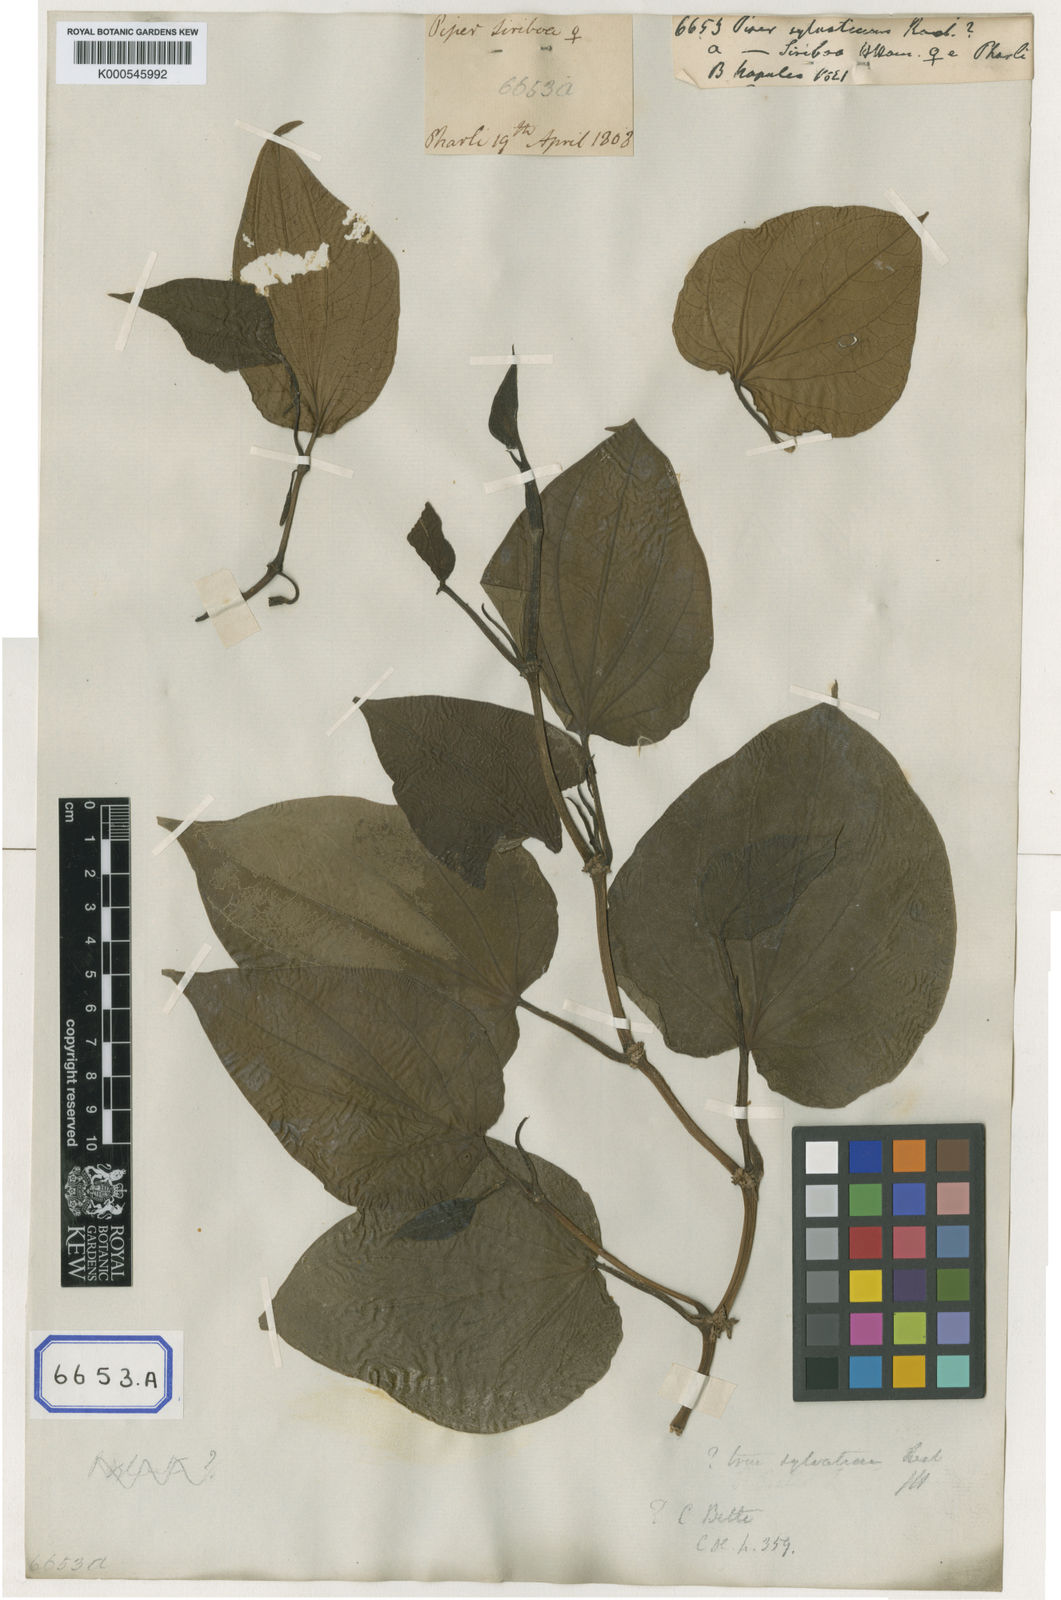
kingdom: Plantae
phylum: Tracheophyta
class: Magnoliopsida
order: Piperales
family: Piperaceae
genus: Piper
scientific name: Piper sylvaticum
